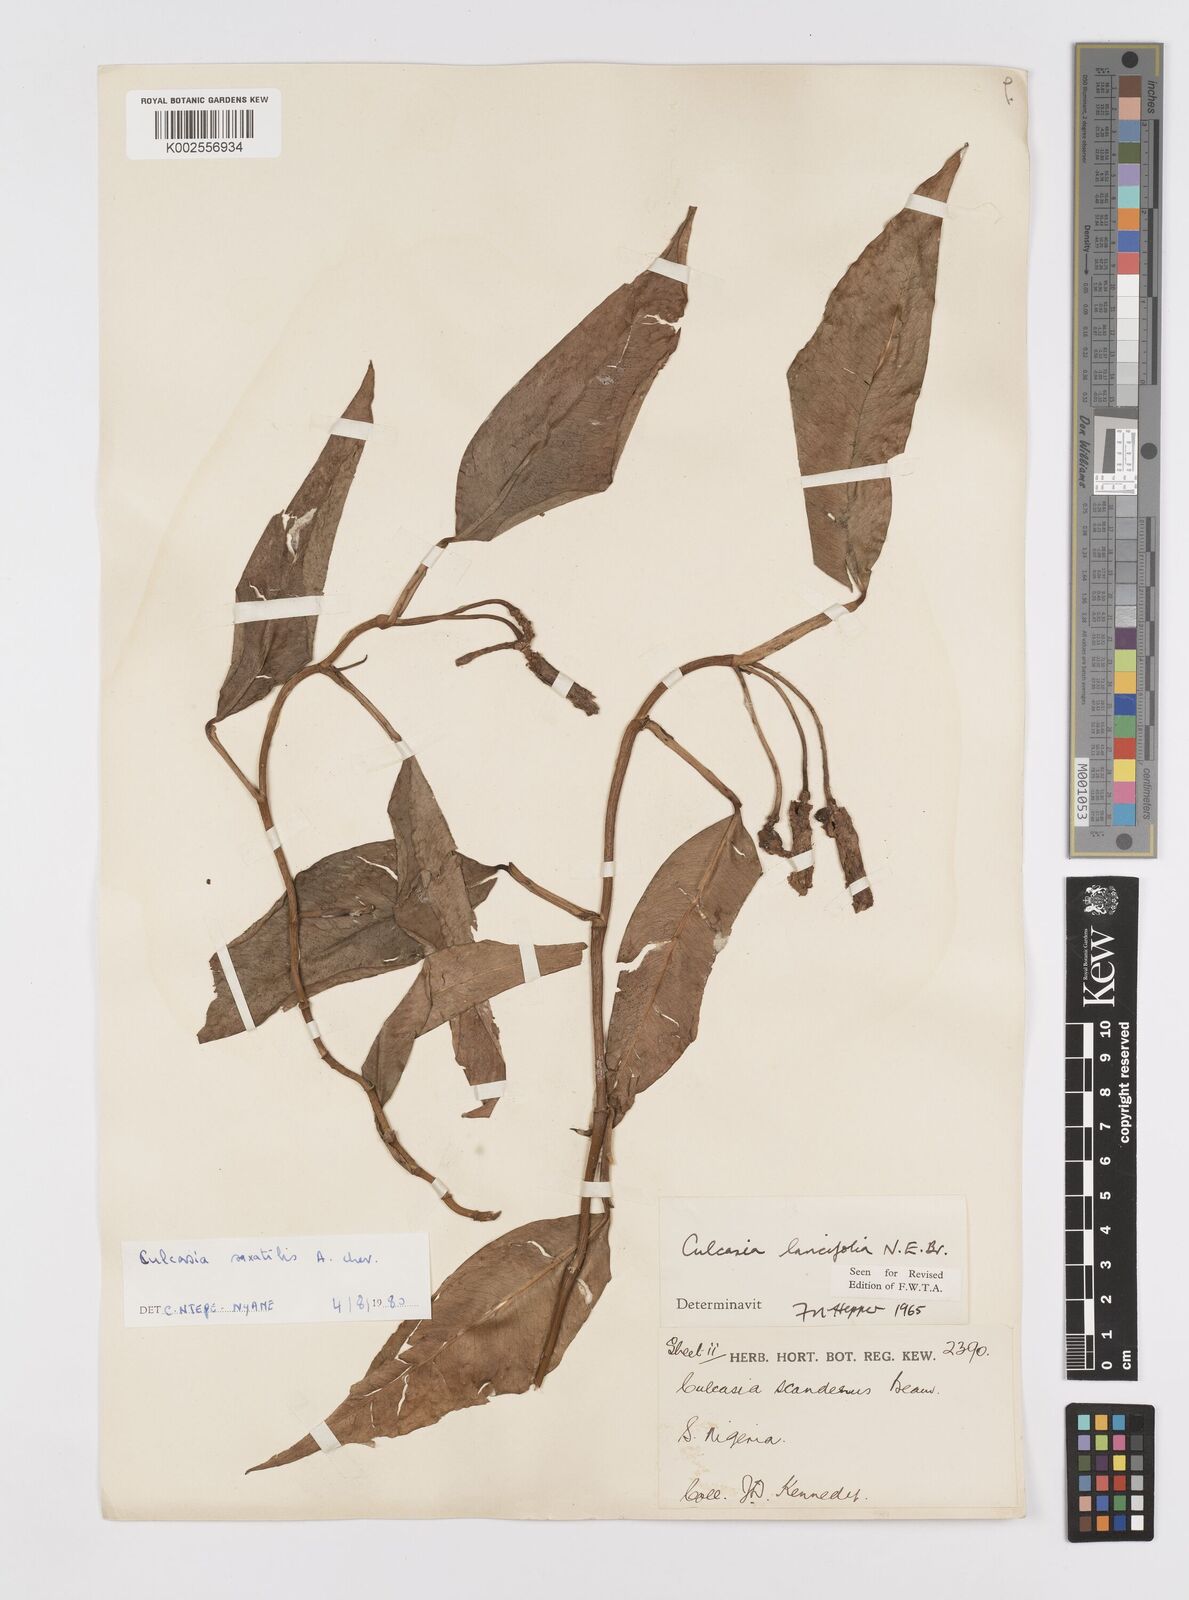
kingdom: Plantae
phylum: Tracheophyta
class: Liliopsida
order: Alismatales
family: Araceae
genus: Culcasia
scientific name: Culcasia scandens
